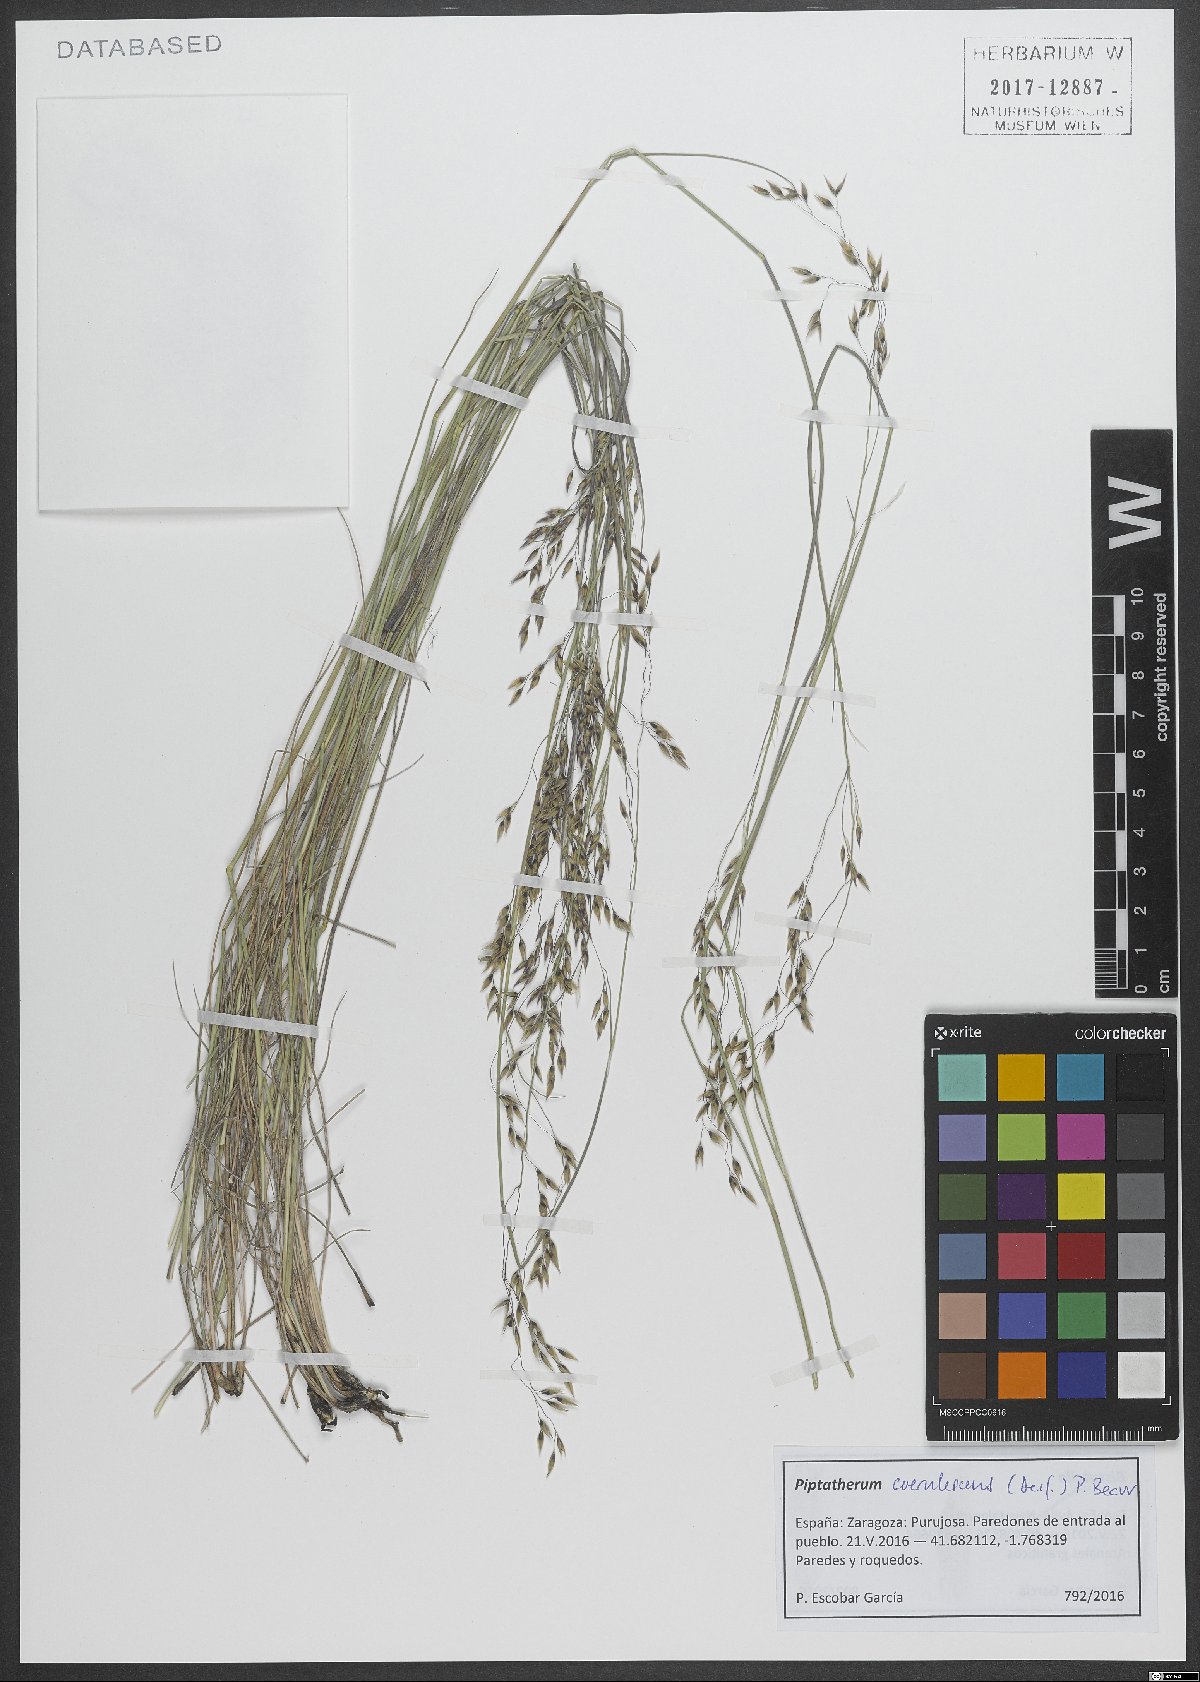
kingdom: Plantae
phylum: Tracheophyta
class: Liliopsida
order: Poales
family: Poaceae
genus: Piptatherum
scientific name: Piptatherum coerulescens
